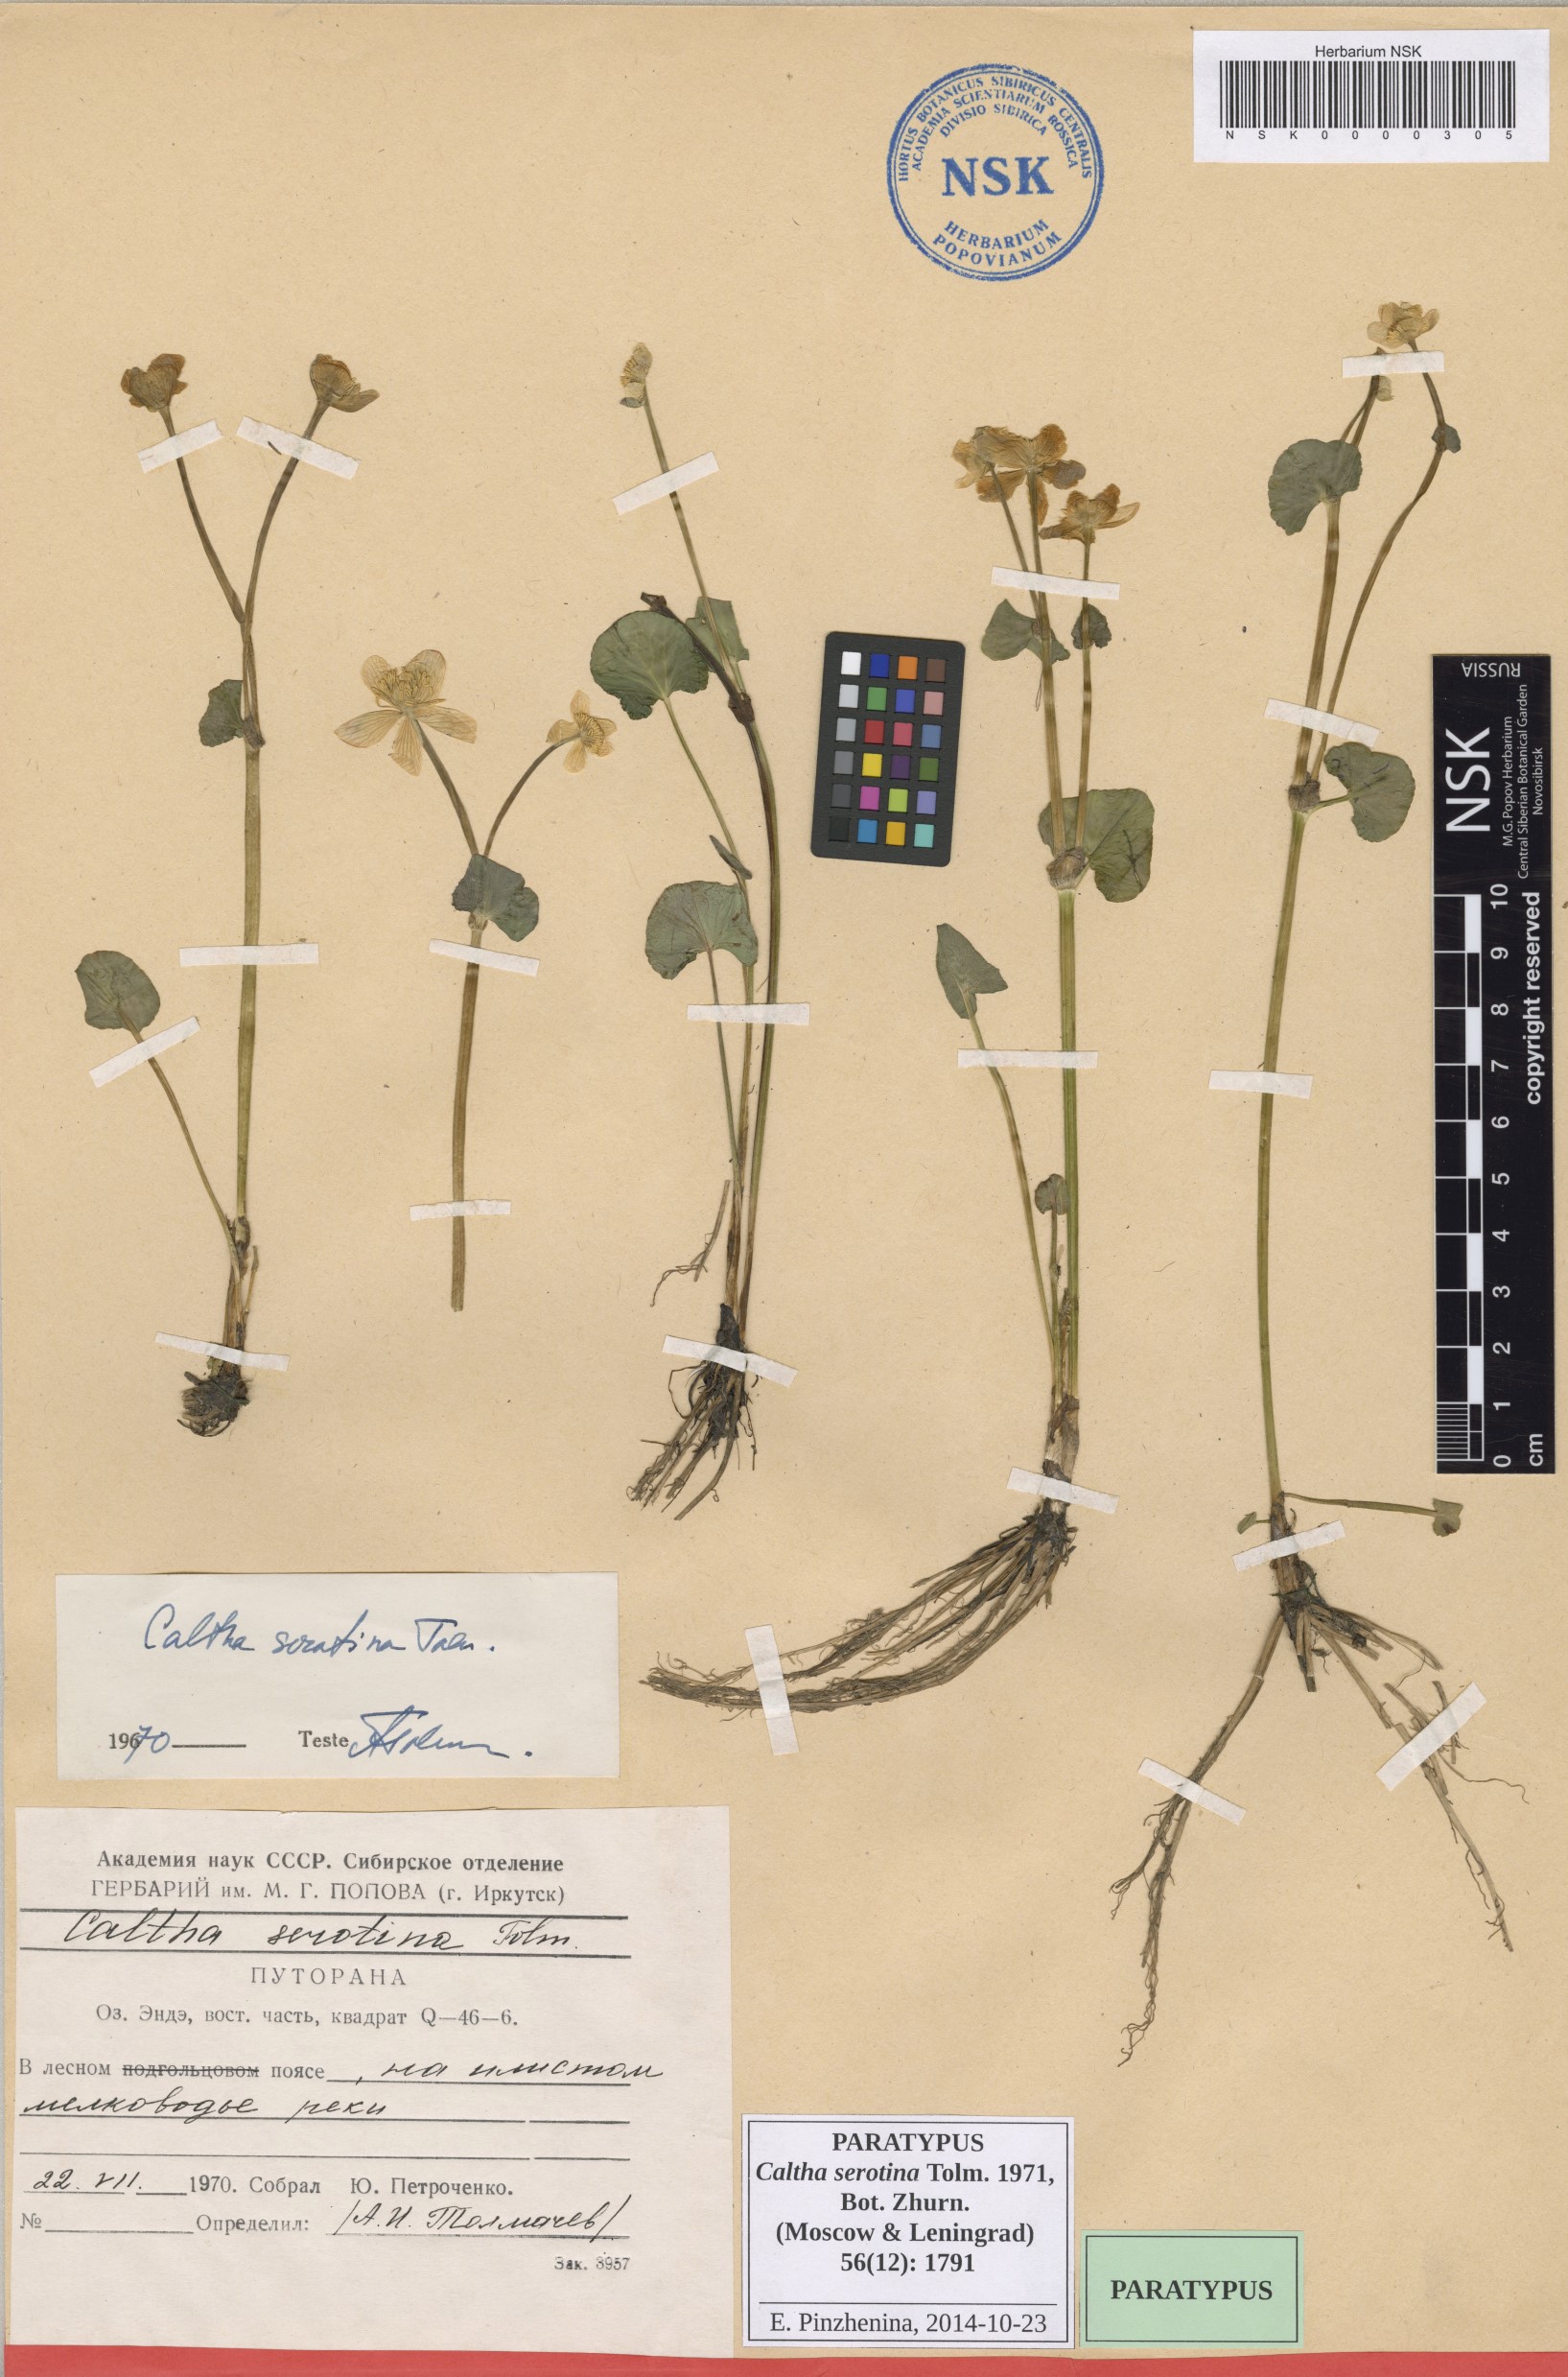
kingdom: Plantae
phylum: Tracheophyta
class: Magnoliopsida
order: Ranunculales
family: Ranunculaceae
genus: Caltha
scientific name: Caltha palustris
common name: Marsh marigold
